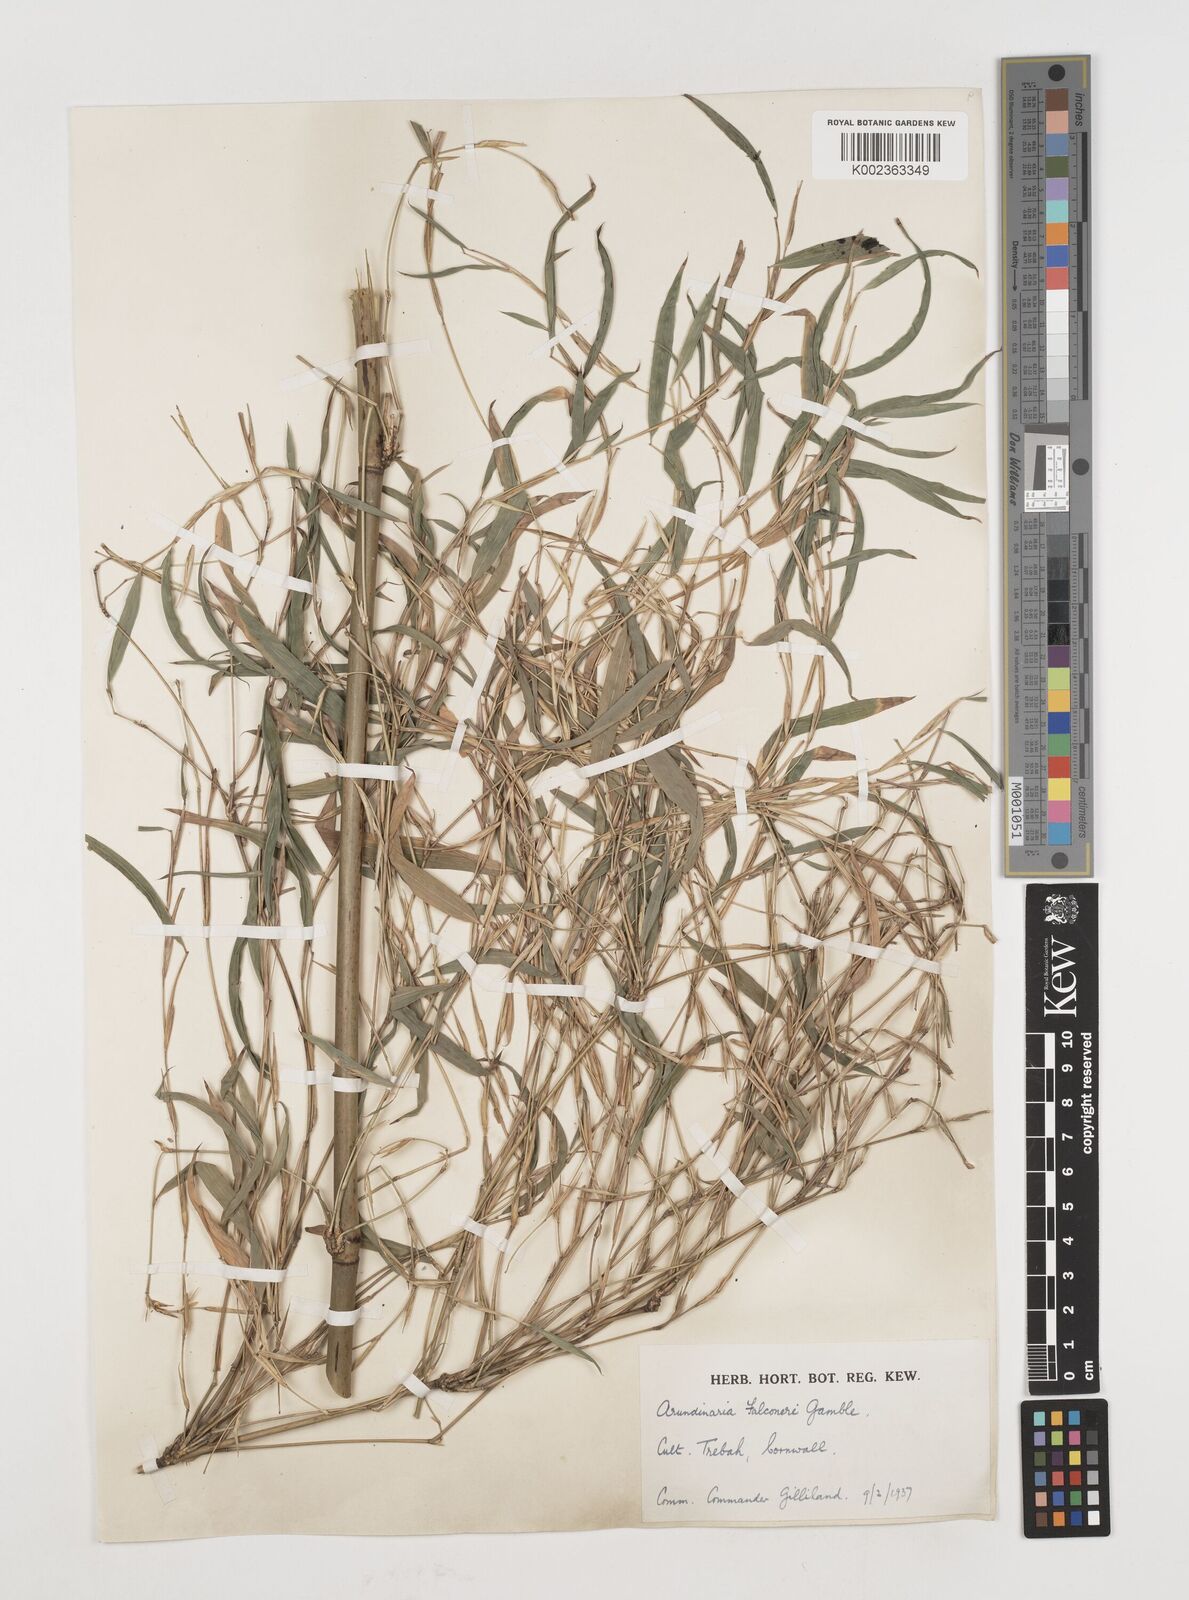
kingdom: Plantae
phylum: Tracheophyta
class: Liliopsida
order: Poales
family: Poaceae
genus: Himalayacalamus
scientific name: Himalayacalamus falconeri
